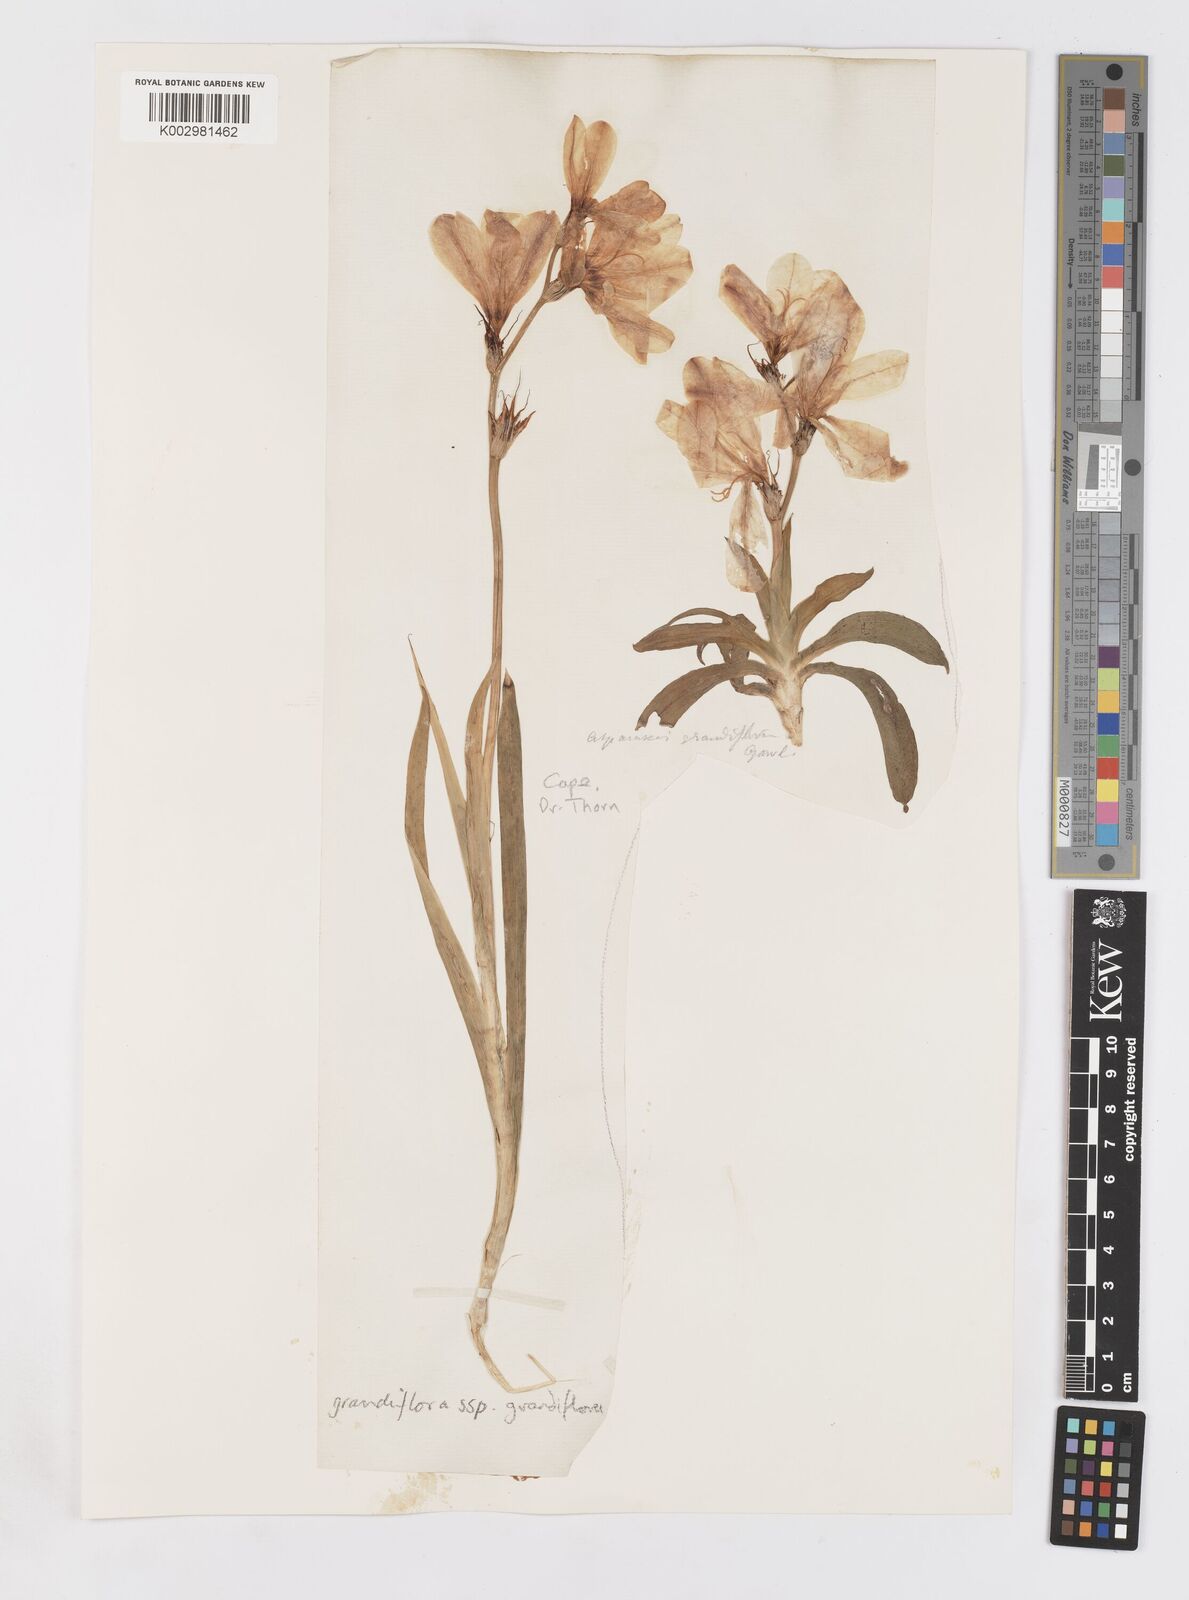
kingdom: Plantae
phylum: Tracheophyta
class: Liliopsida
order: Asparagales
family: Iridaceae
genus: Sparaxis
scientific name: Sparaxis grandiflora
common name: Plain harlequin-flower
